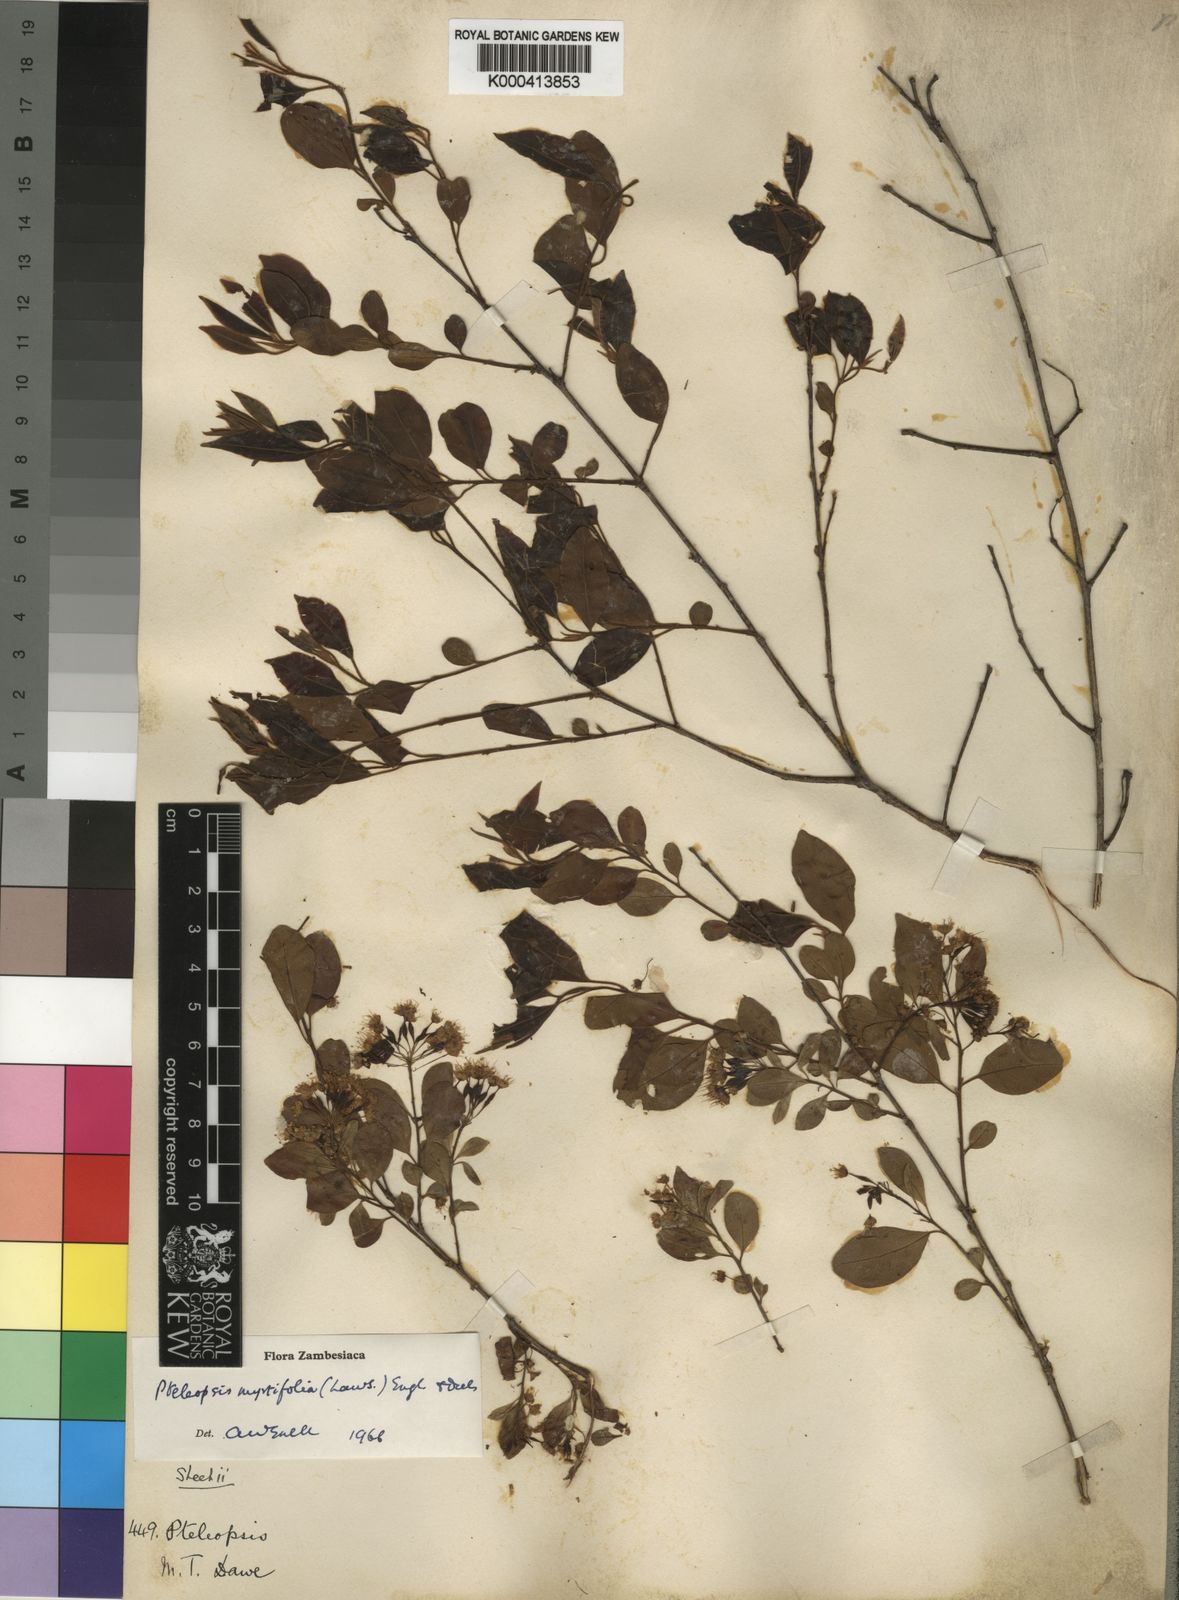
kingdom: Plantae
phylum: Tracheophyta
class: Magnoliopsida
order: Myrtales
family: Combretaceae
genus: Terminalia
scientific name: Terminalia myrtifolia
